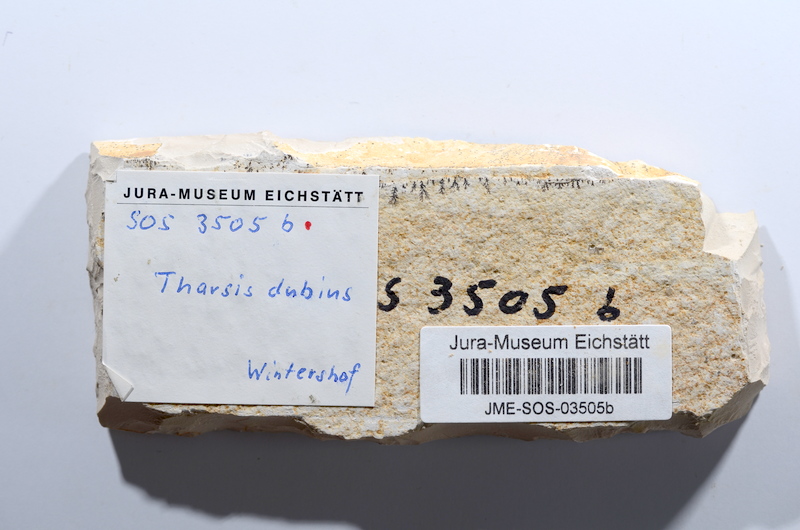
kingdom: Animalia
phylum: Chordata
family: Ascalaboidae
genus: Tharsis
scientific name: Tharsis dubius
